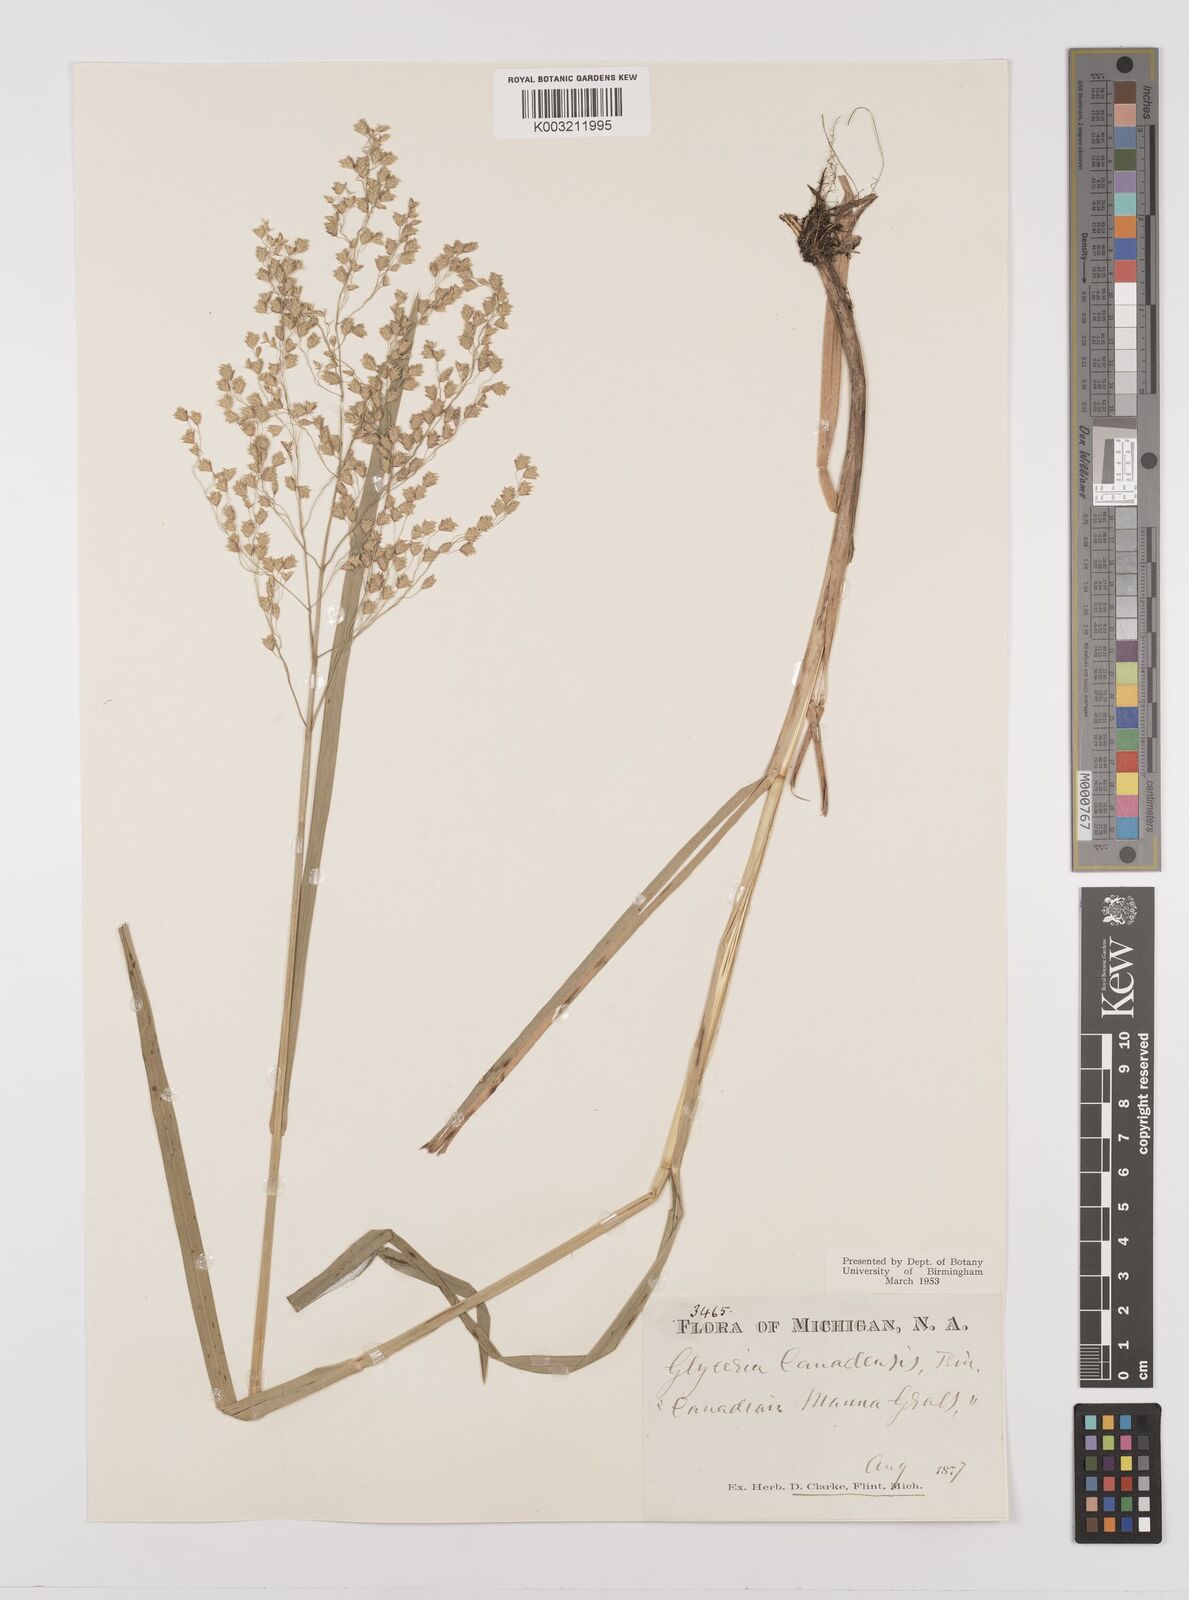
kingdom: Plantae
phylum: Tracheophyta
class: Liliopsida
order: Poales
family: Poaceae
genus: Glyceria
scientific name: Glyceria canadensis
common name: Canada mannagrass
